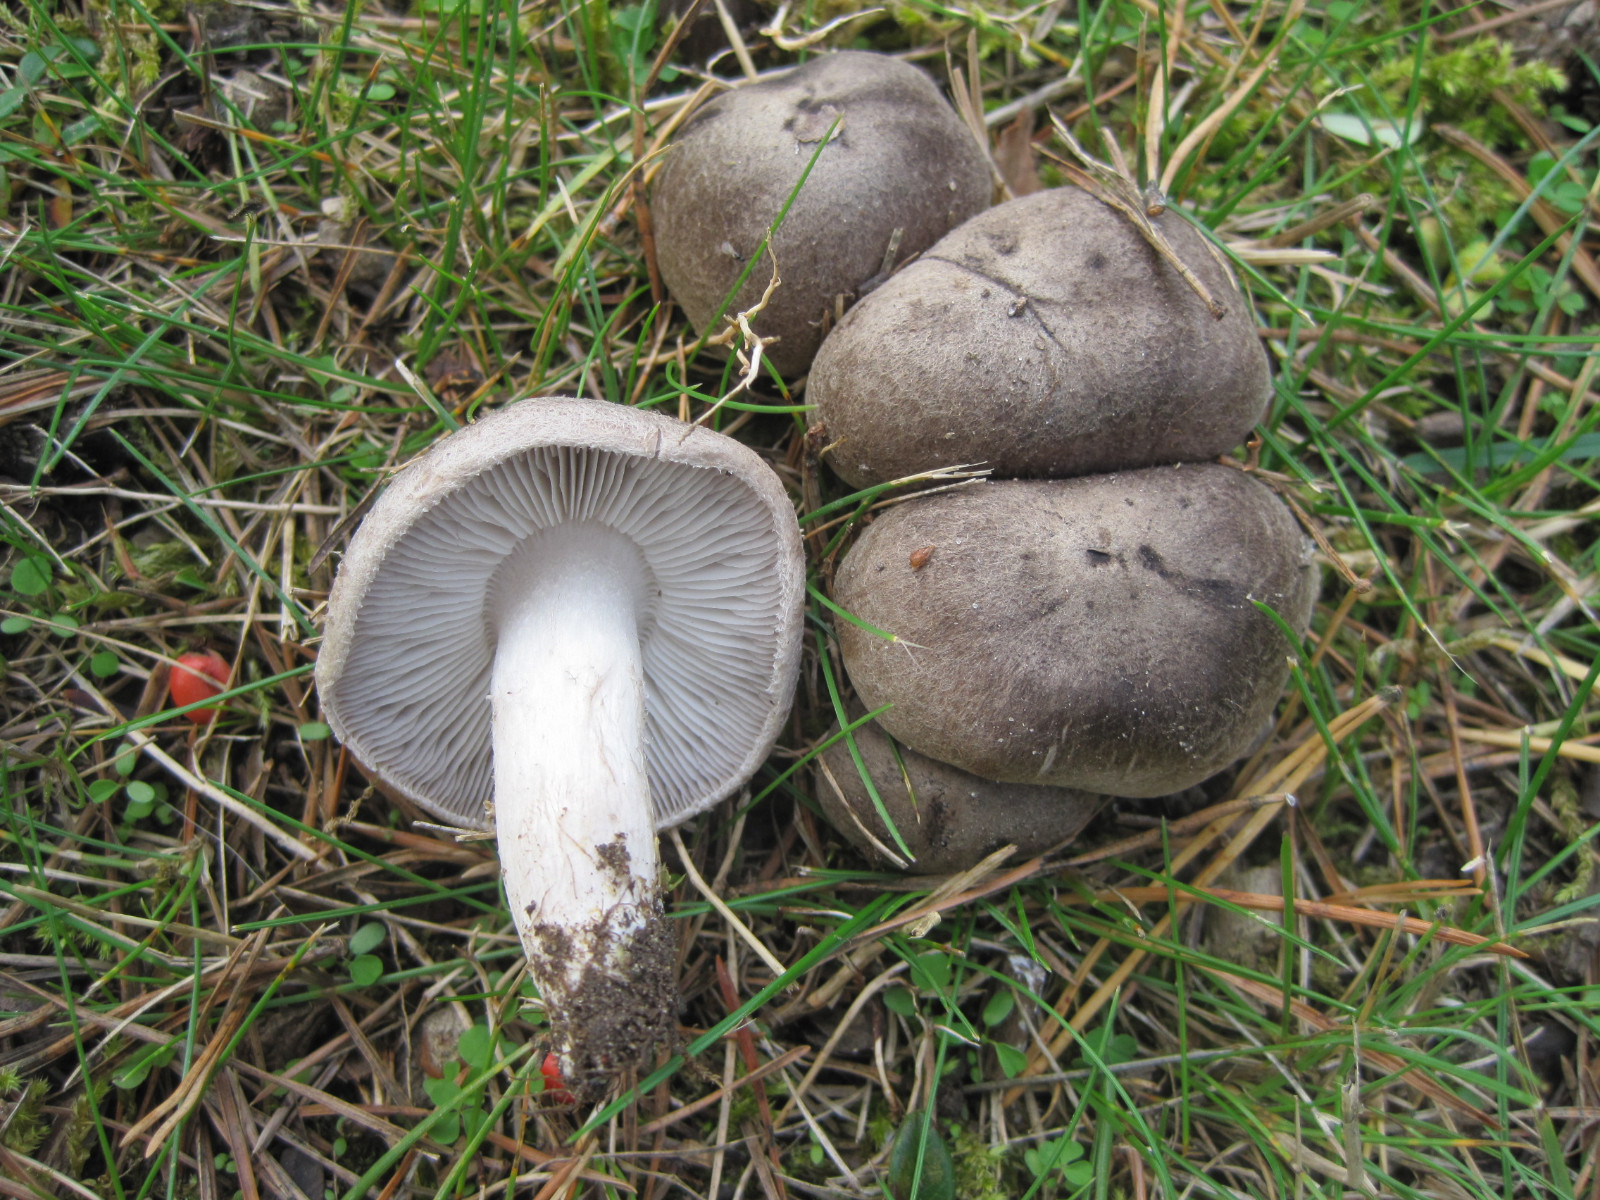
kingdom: Fungi
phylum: Basidiomycota
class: Agaricomycetes
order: Agaricales
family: Tricholomataceae
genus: Tricholoma
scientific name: Tricholoma terreum
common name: jordfarvet ridderhat
